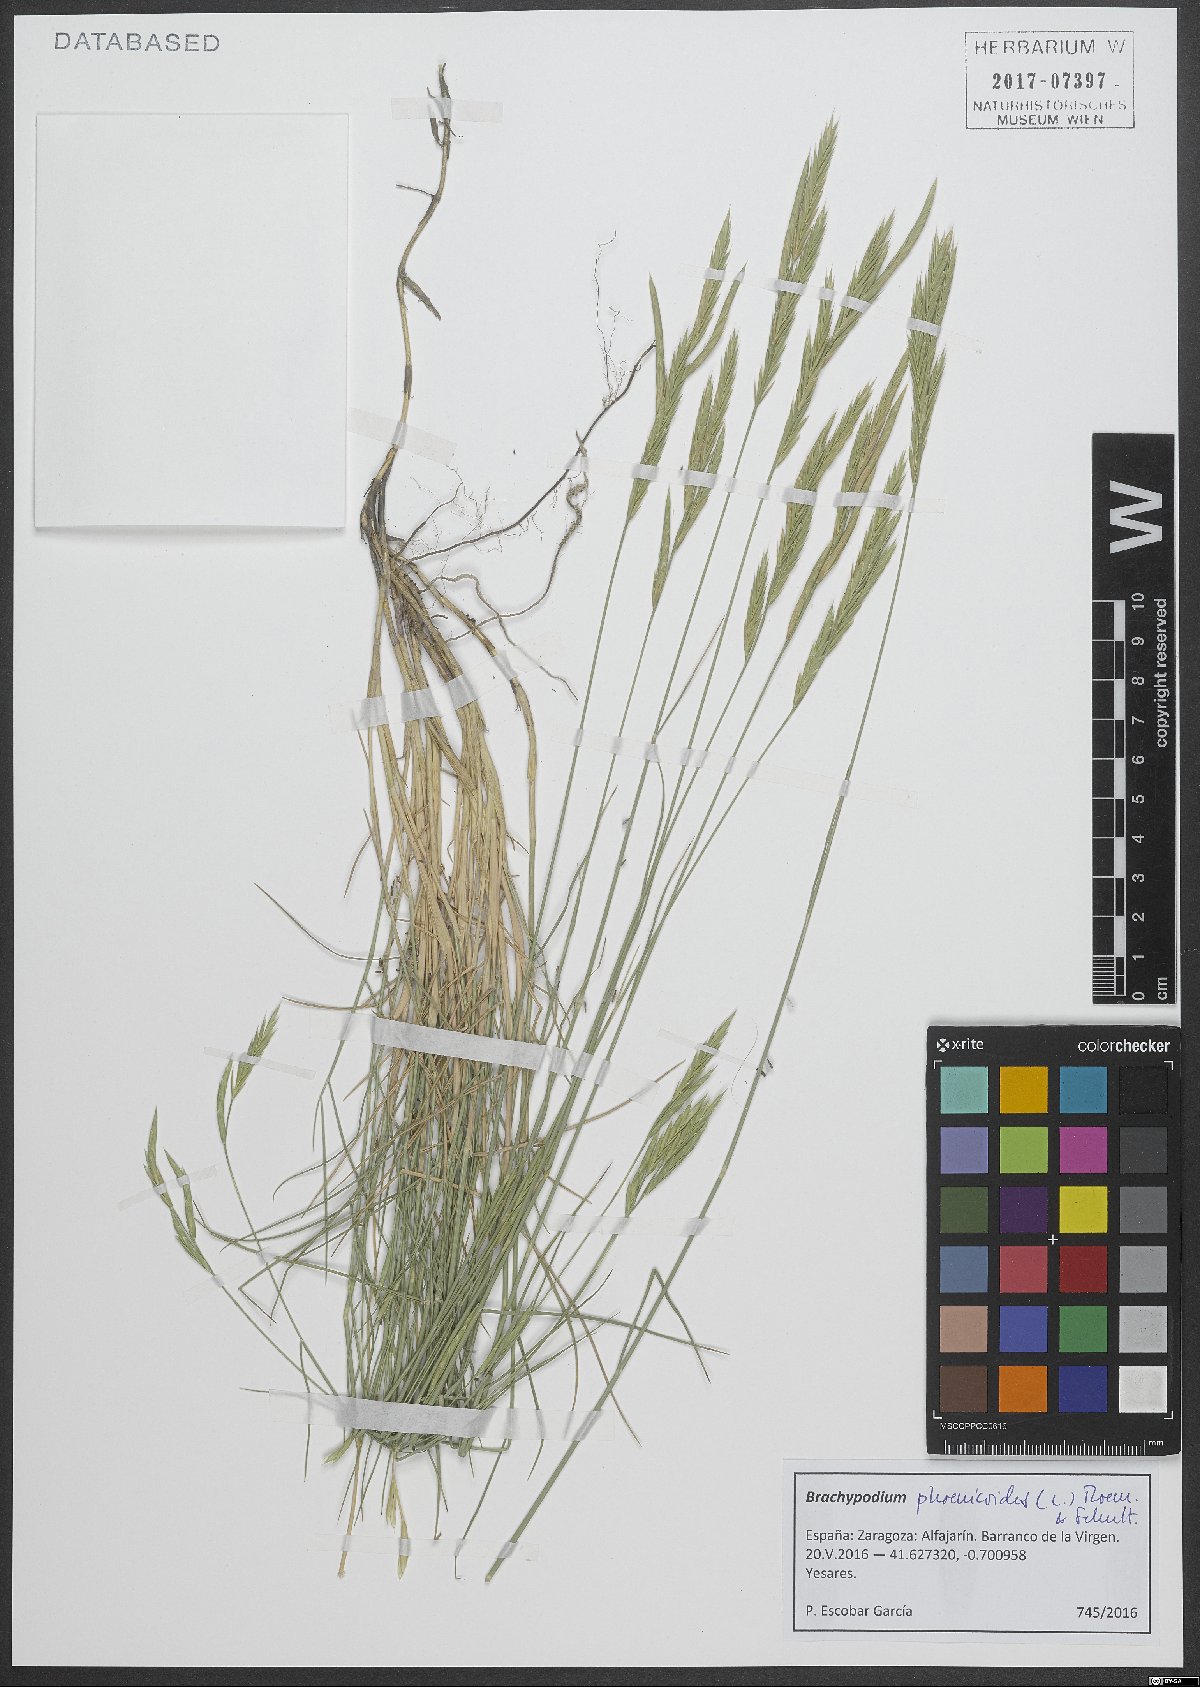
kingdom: Plantae
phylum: Tracheophyta
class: Liliopsida
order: Poales
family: Poaceae
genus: Brachypodium
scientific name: Brachypodium phoenicoides
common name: Thinleaf false brome
